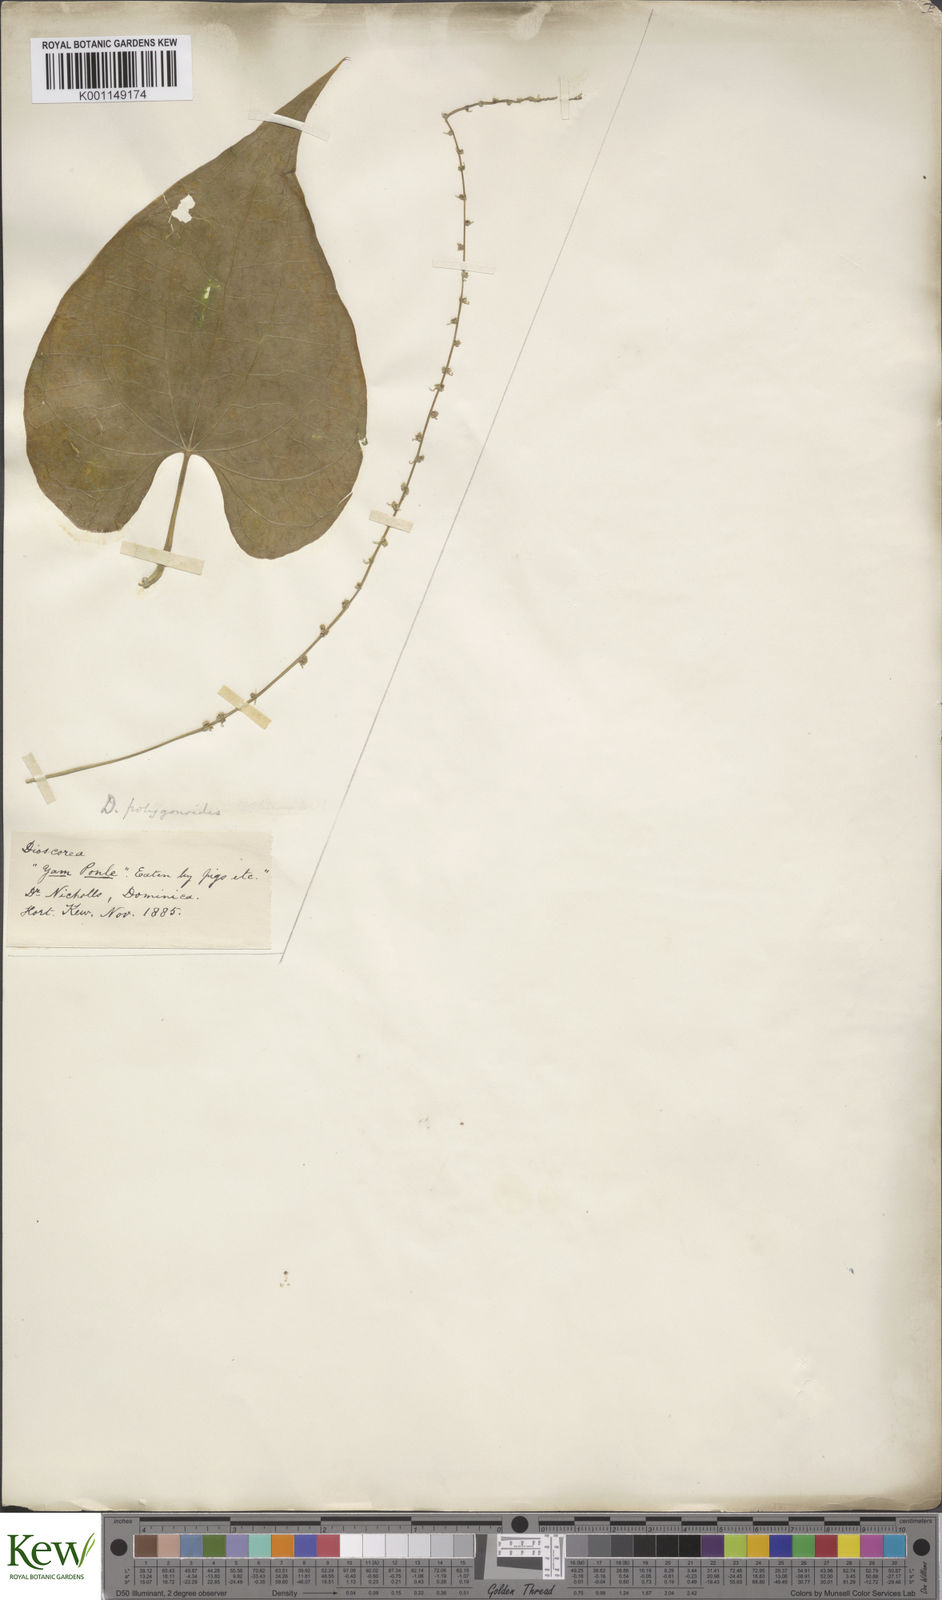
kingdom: Plantae
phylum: Tracheophyta
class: Liliopsida
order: Dioscoreales
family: Dioscoreaceae
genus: Dioscorea
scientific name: Dioscorea polygonoides
